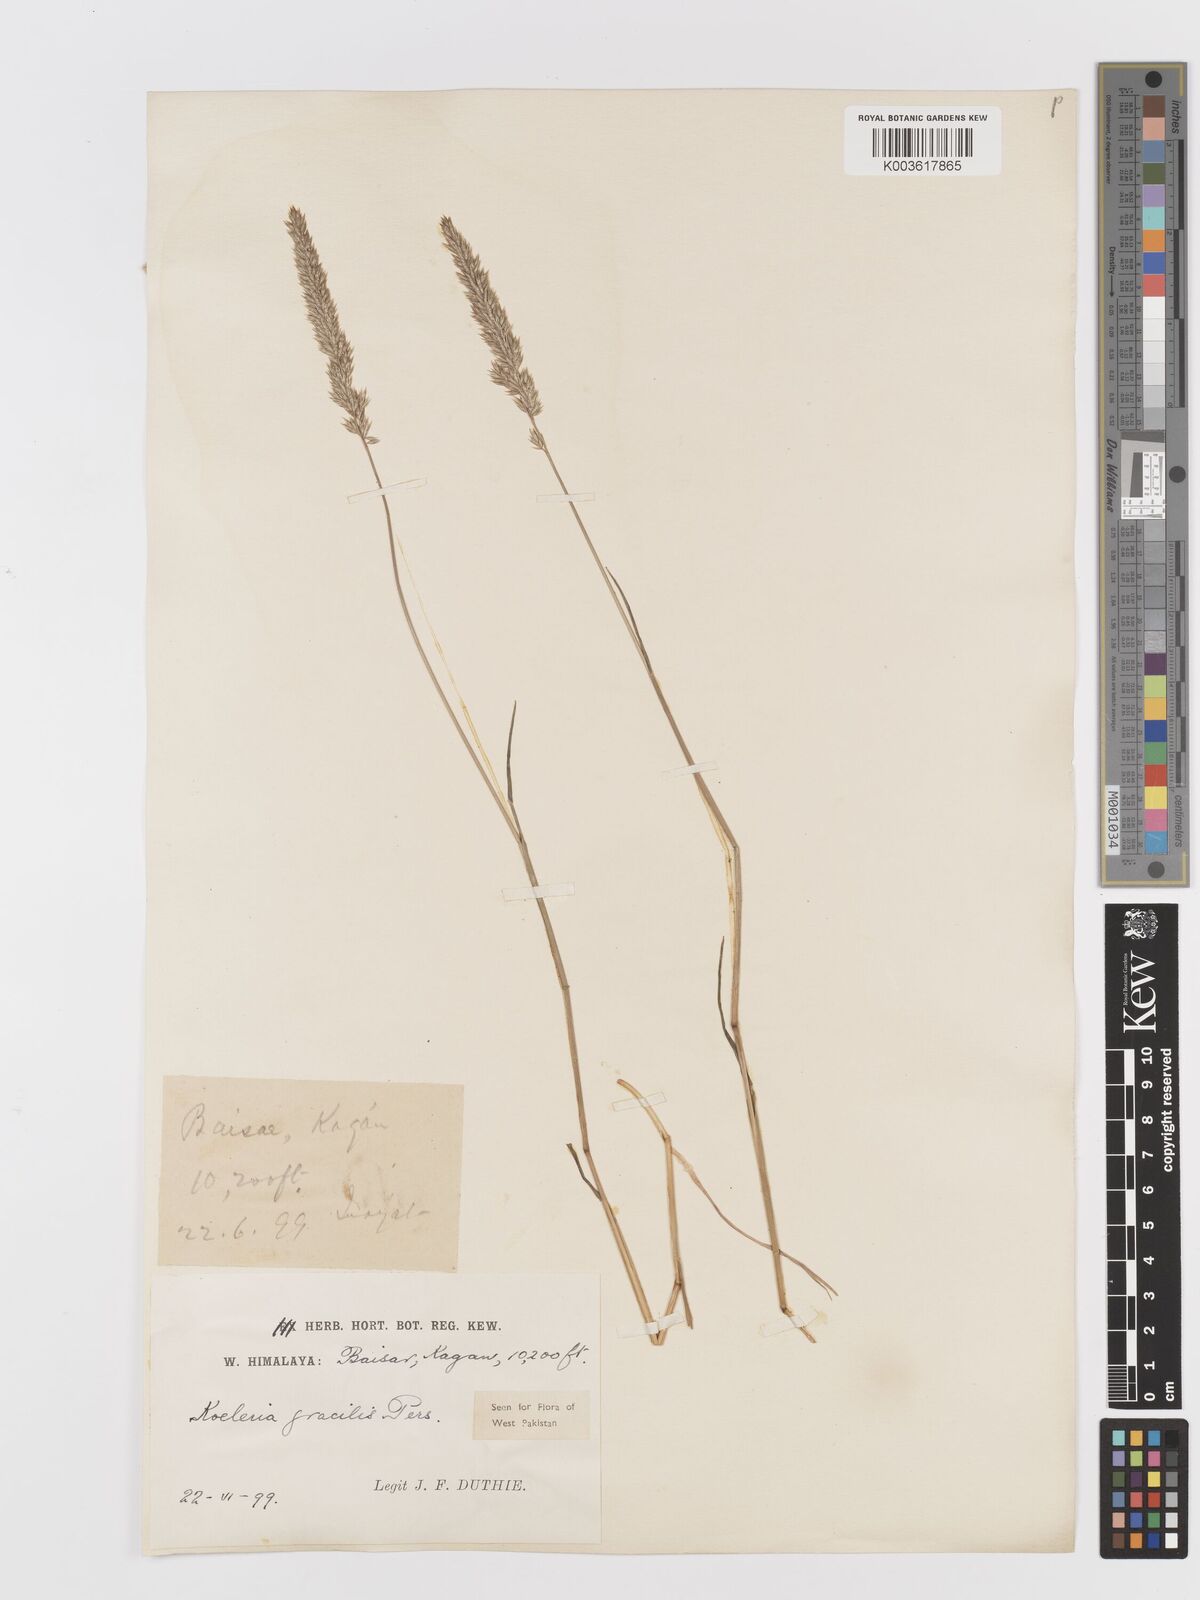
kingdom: Plantae
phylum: Tracheophyta
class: Liliopsida
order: Poales
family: Poaceae
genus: Koeleria
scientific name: Koeleria macrantha
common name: Crested hair-grass
